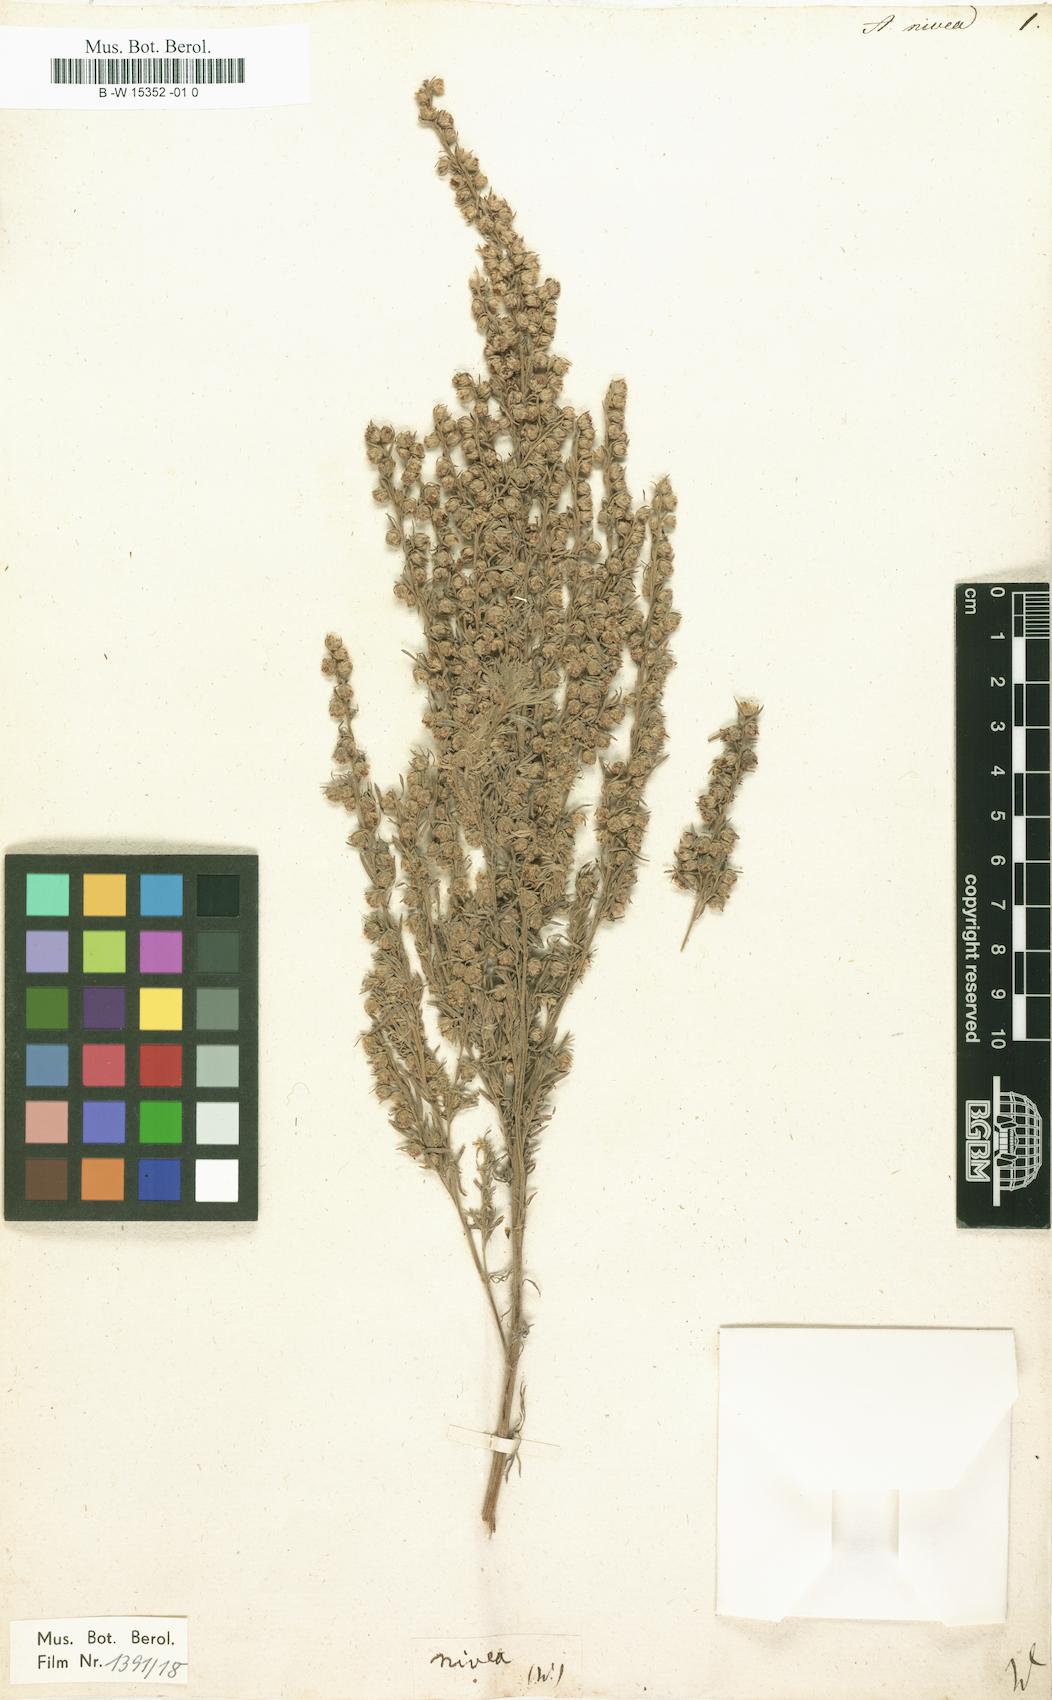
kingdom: Plantae
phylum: Tracheophyta
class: Magnoliopsida
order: Asterales
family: Asteraceae
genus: Artemisia
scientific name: Artemisia austriaca
